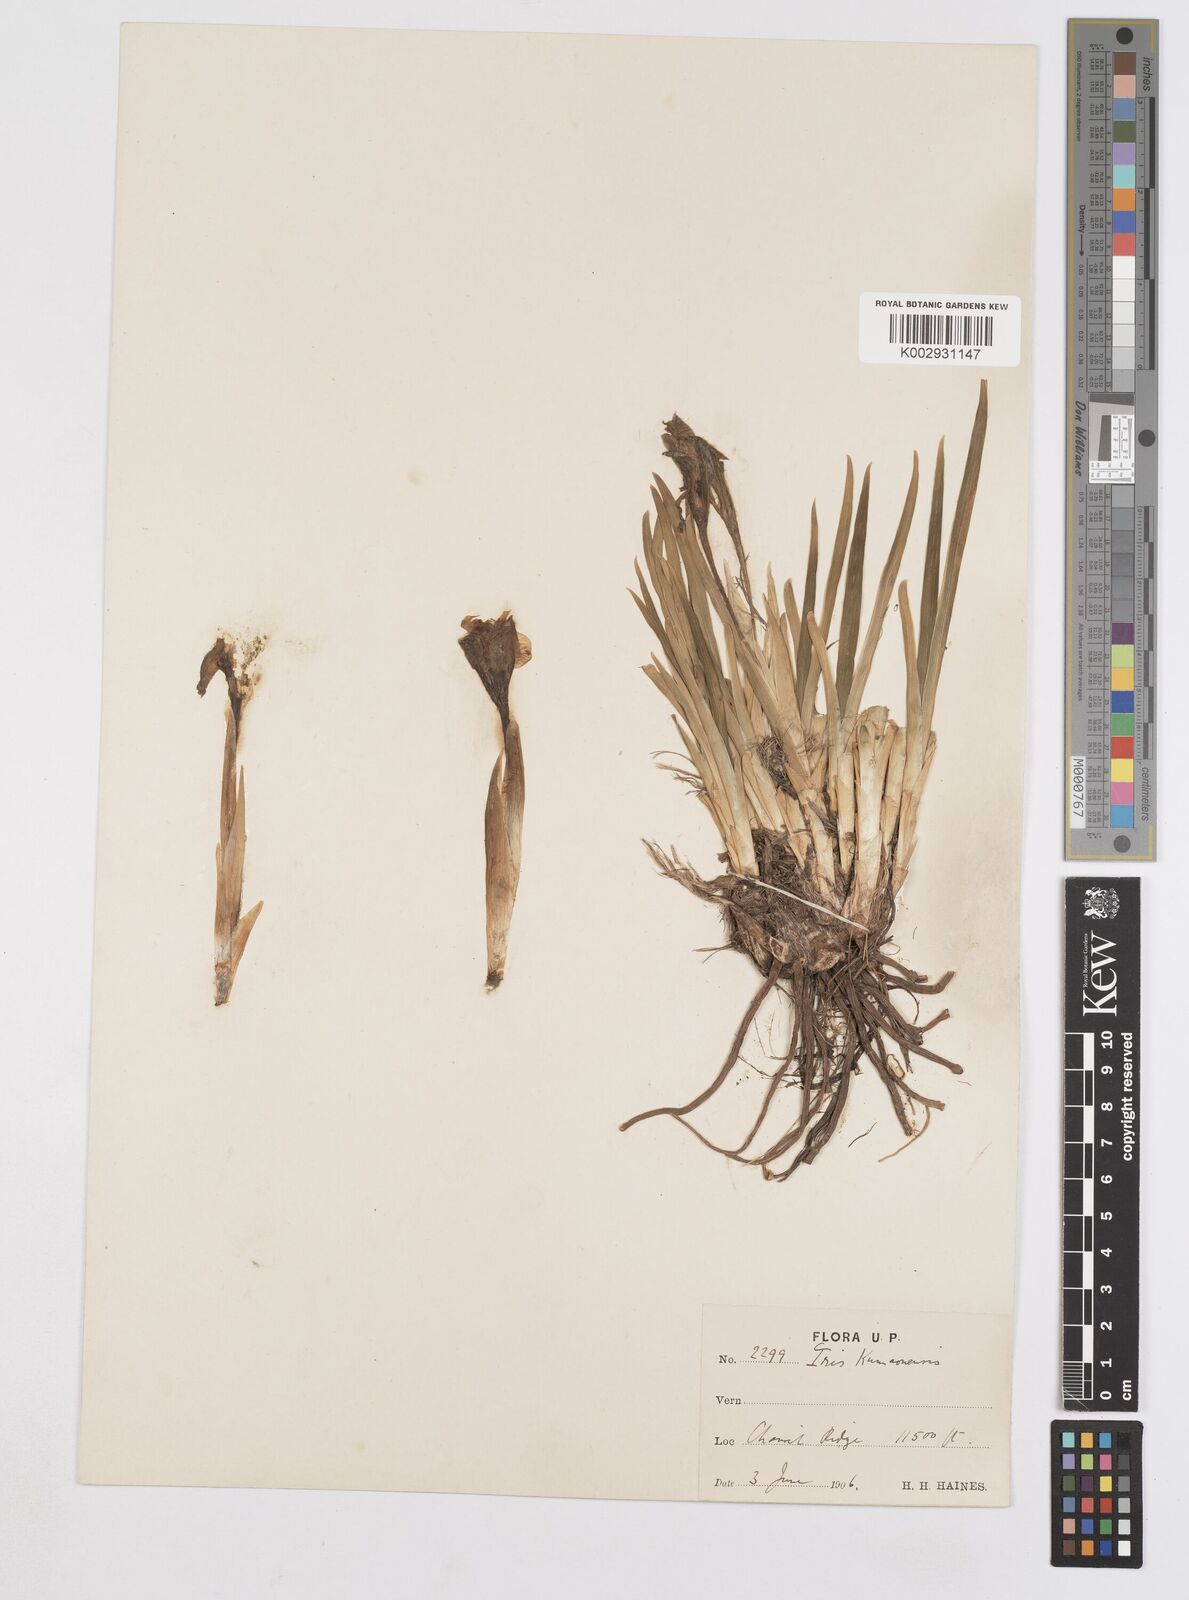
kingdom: Plantae
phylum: Tracheophyta
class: Liliopsida
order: Asparagales
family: Iridaceae
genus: Iris
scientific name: Iris kemaonensis
